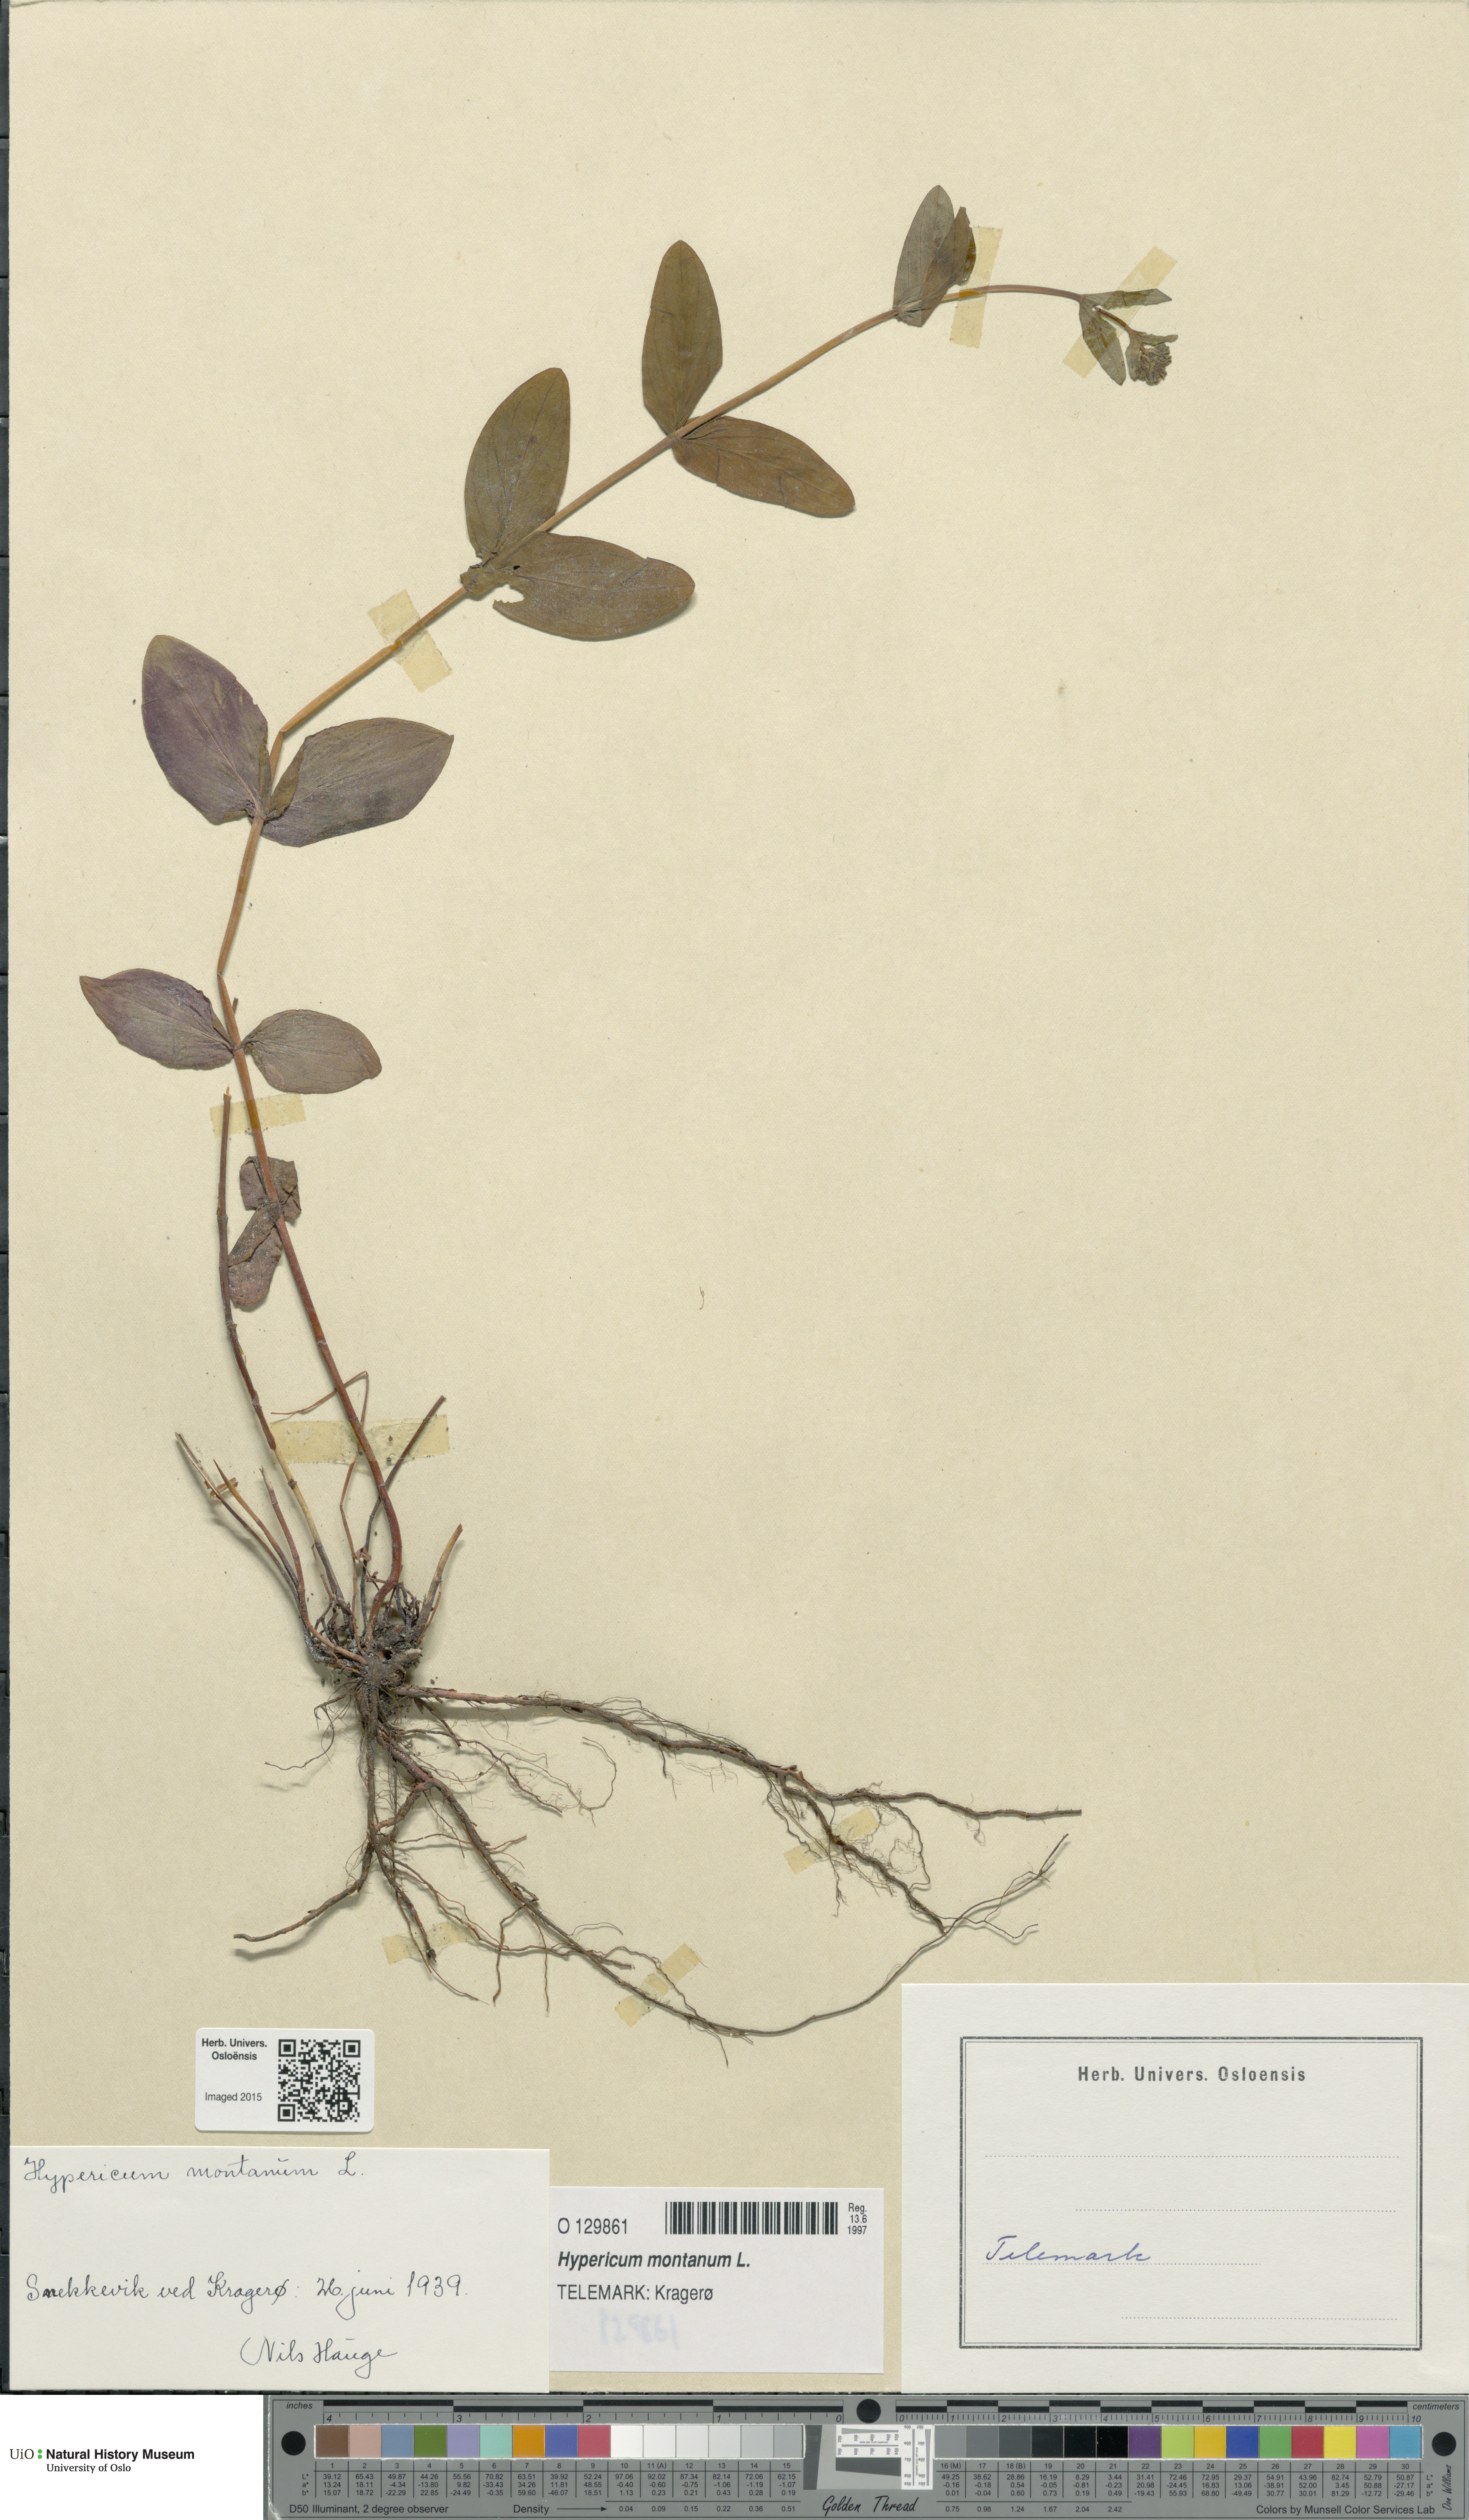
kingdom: Plantae
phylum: Tracheophyta
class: Magnoliopsida
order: Malpighiales
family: Hypericaceae
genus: Hypericum
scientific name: Hypericum montanum
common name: Pale st. john's-wort
